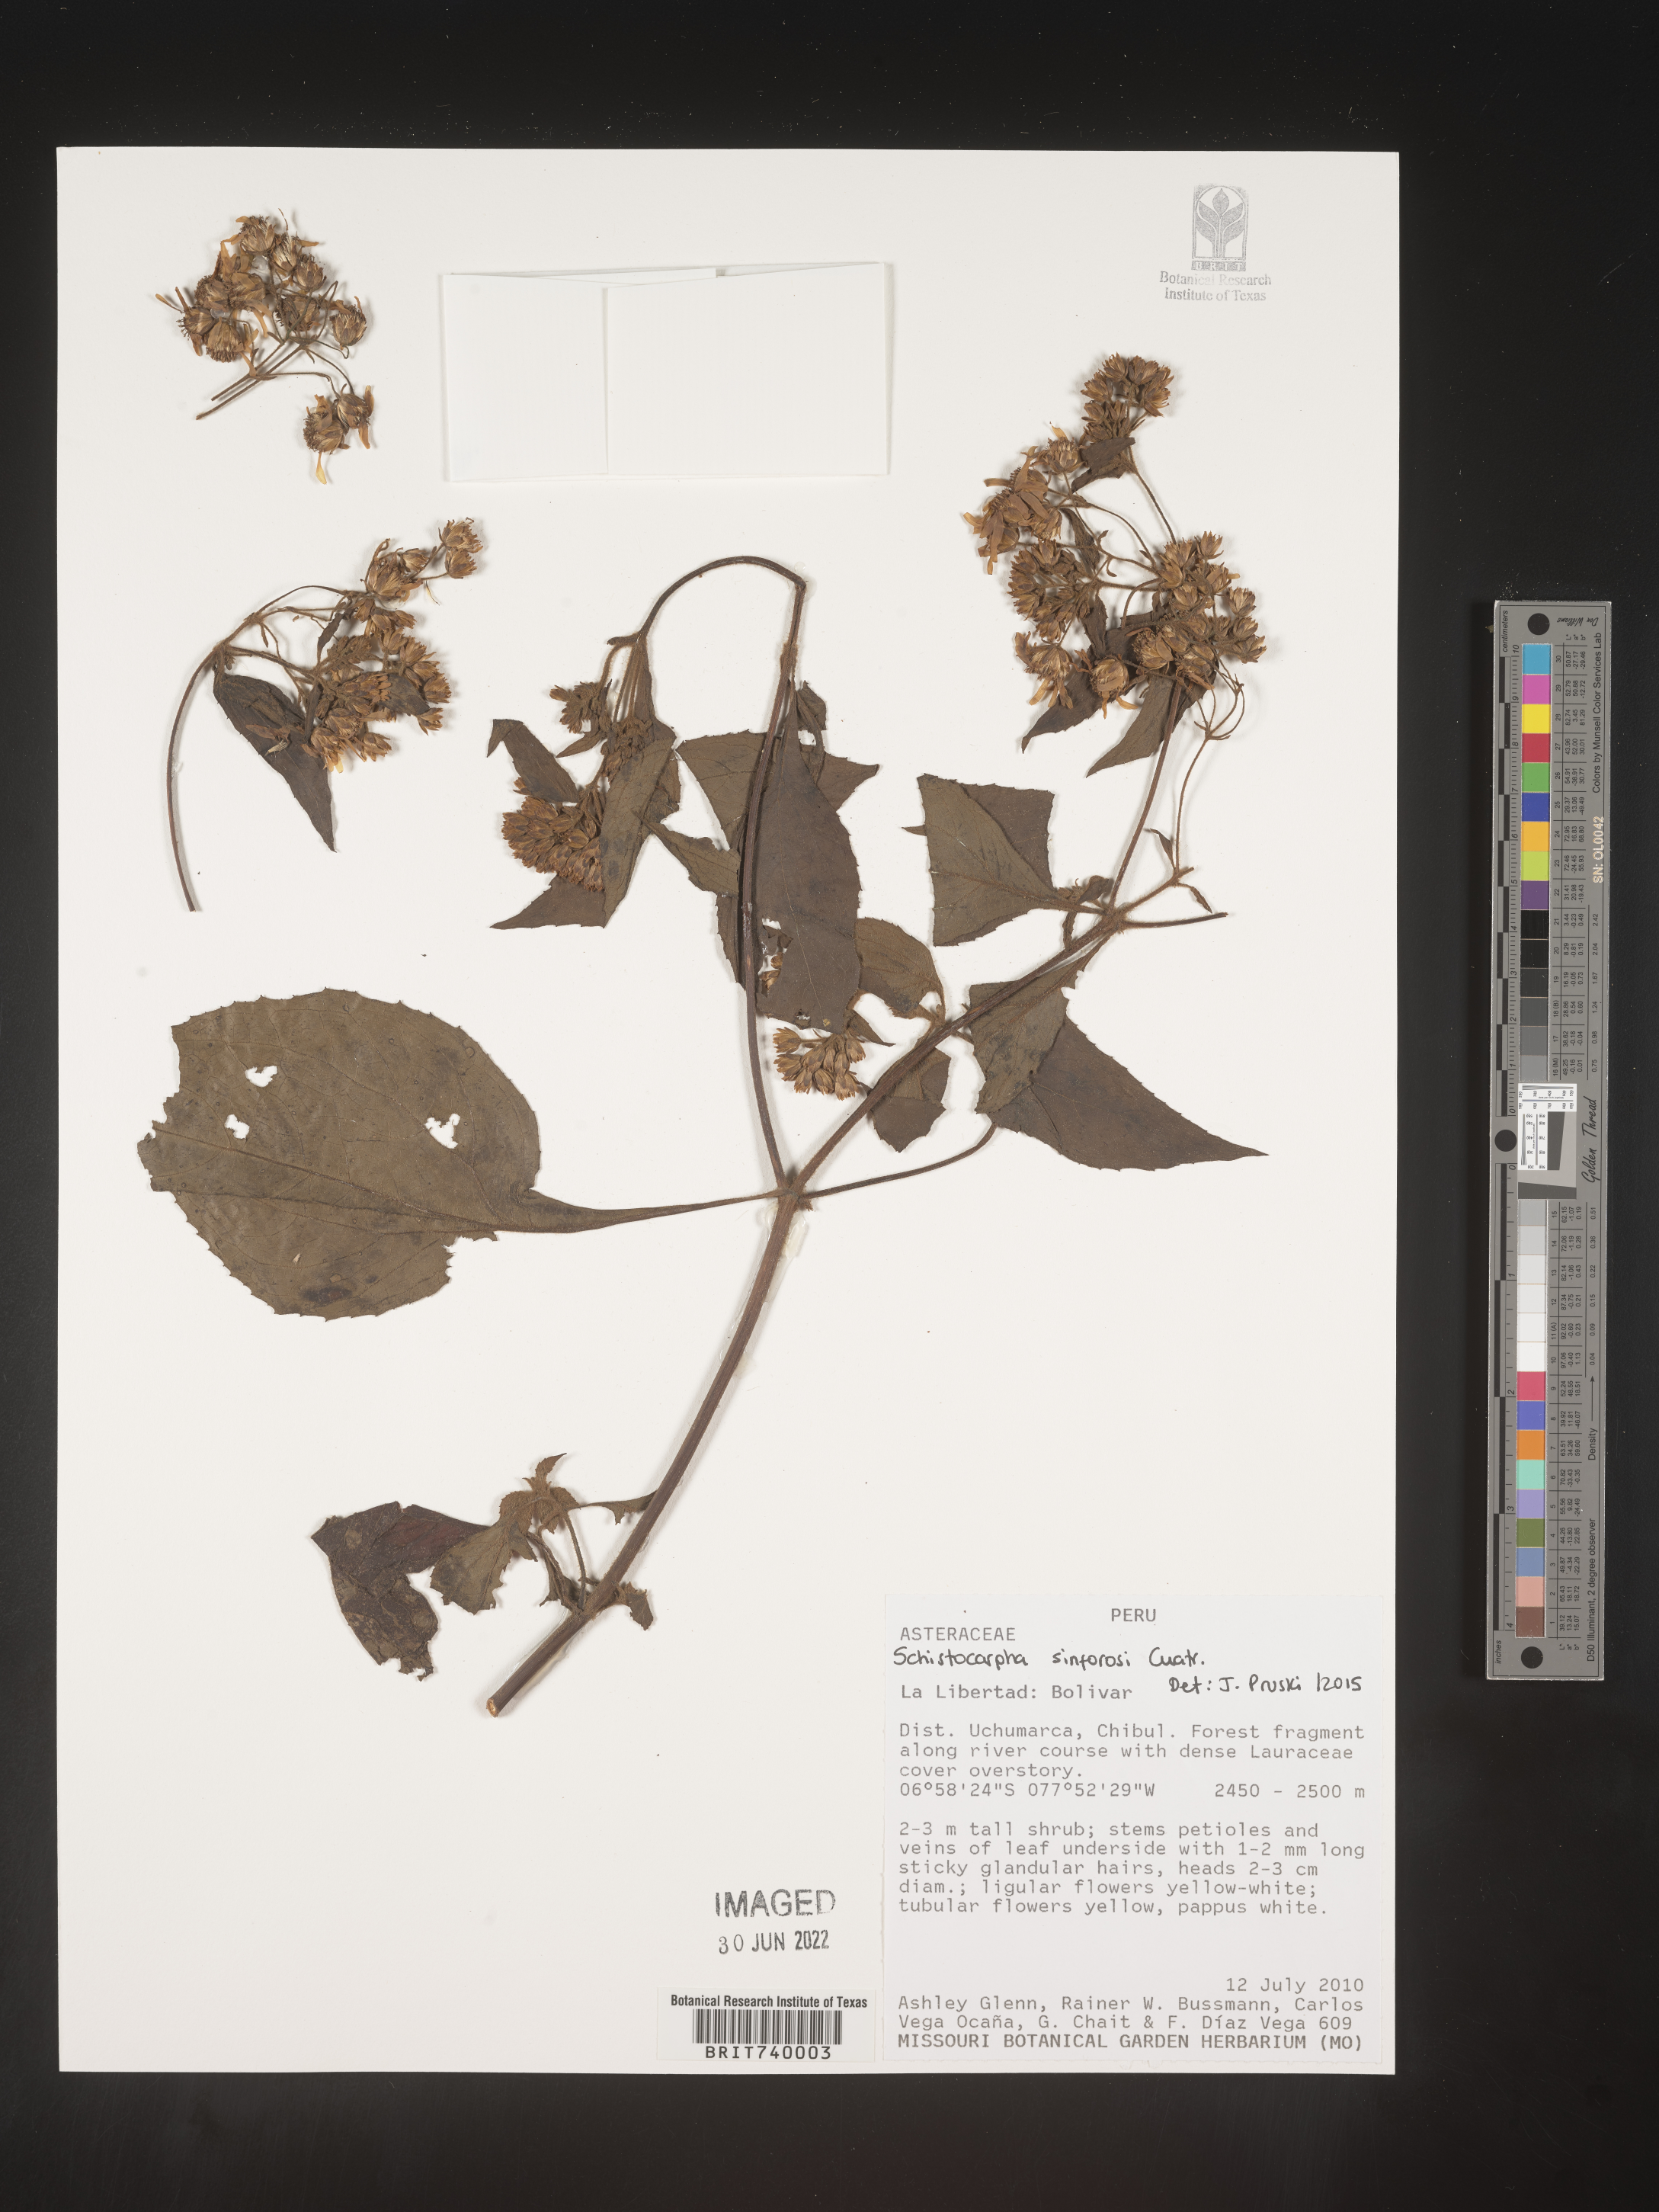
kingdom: Plantae
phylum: Tracheophyta
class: Magnoliopsida
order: Asterales
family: Asteraceae
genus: Schistocarpha
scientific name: Schistocarpha
